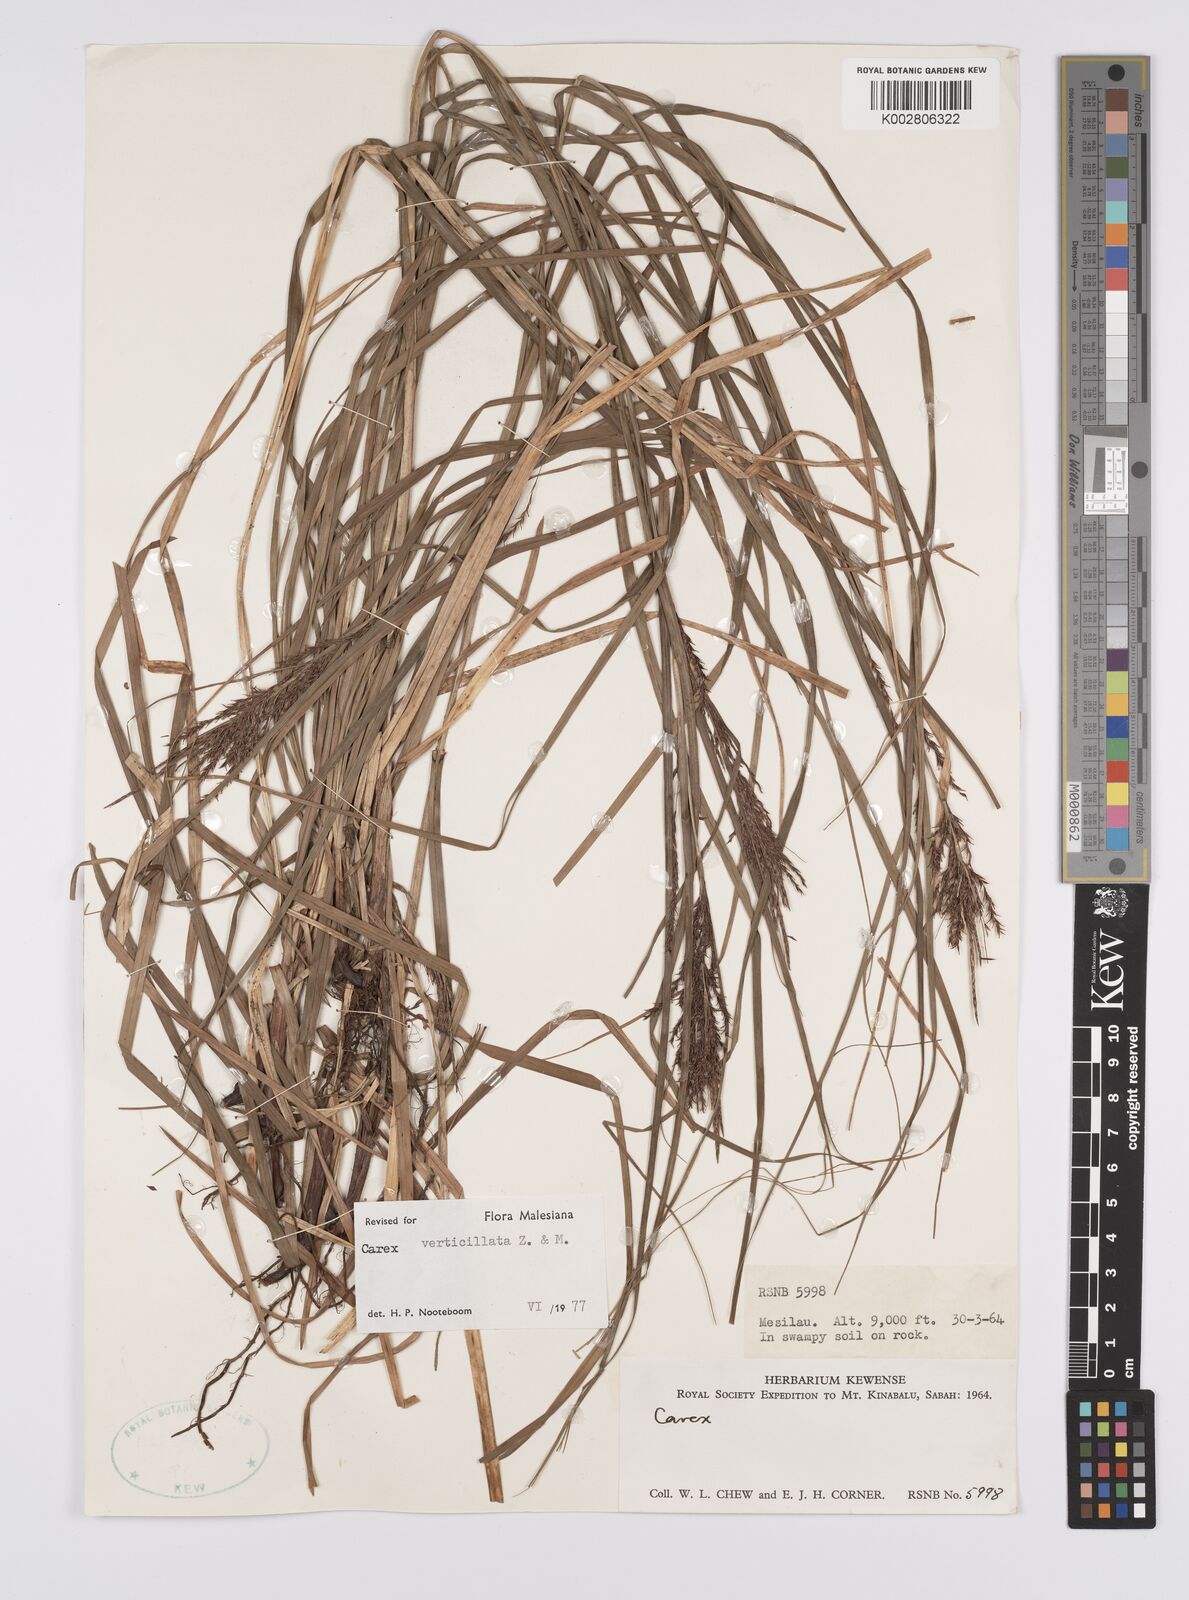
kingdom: Plantae
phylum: Tracheophyta
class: Liliopsida
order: Poales
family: Cyperaceae
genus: Carex
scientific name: Carex verticillata
